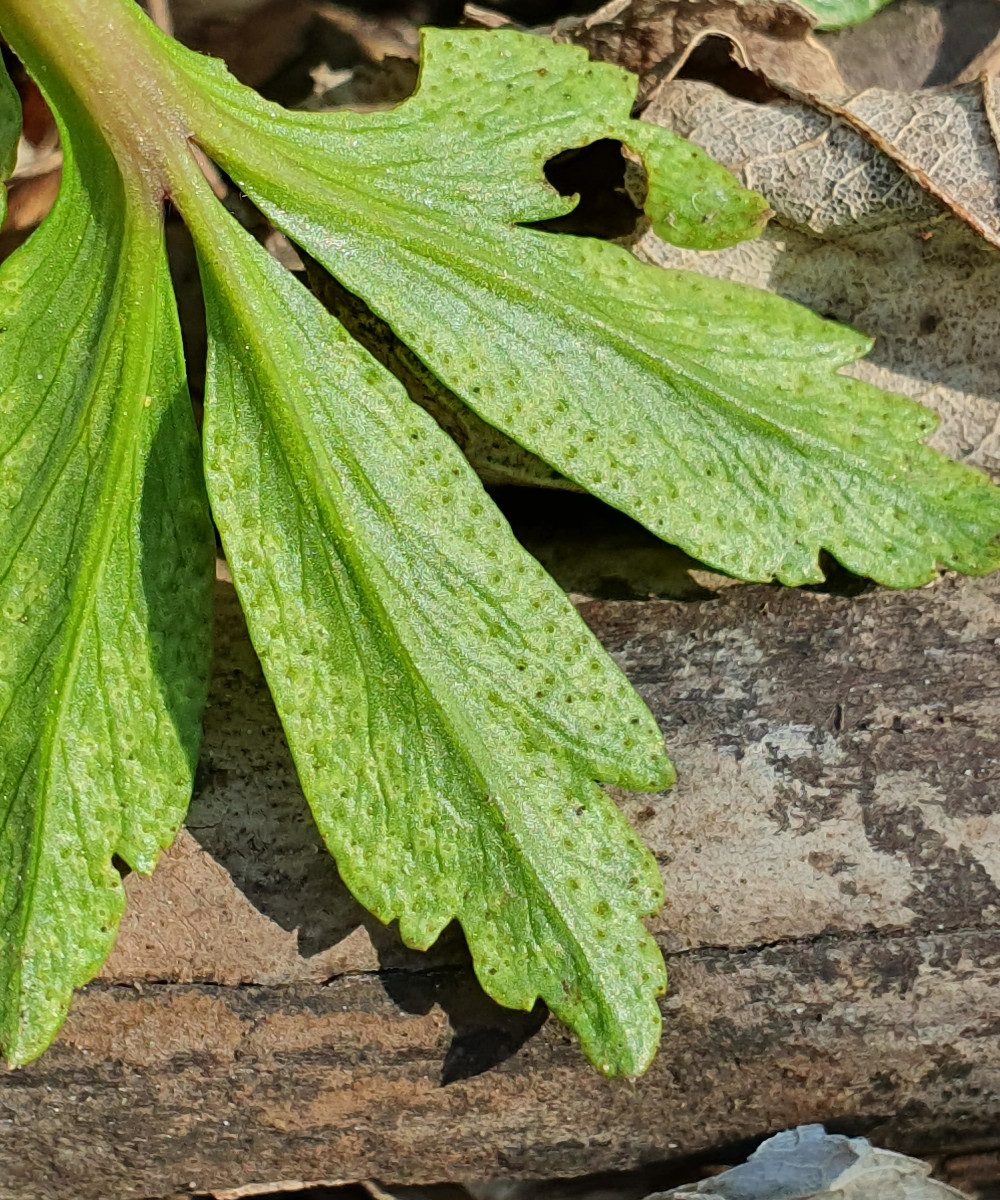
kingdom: Fungi
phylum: Basidiomycota
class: Pucciniomycetes
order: Pucciniales
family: Ochropsoraceae
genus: Ochropsora
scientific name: Ochropsora ariae
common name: anemone-okkerpletrust
